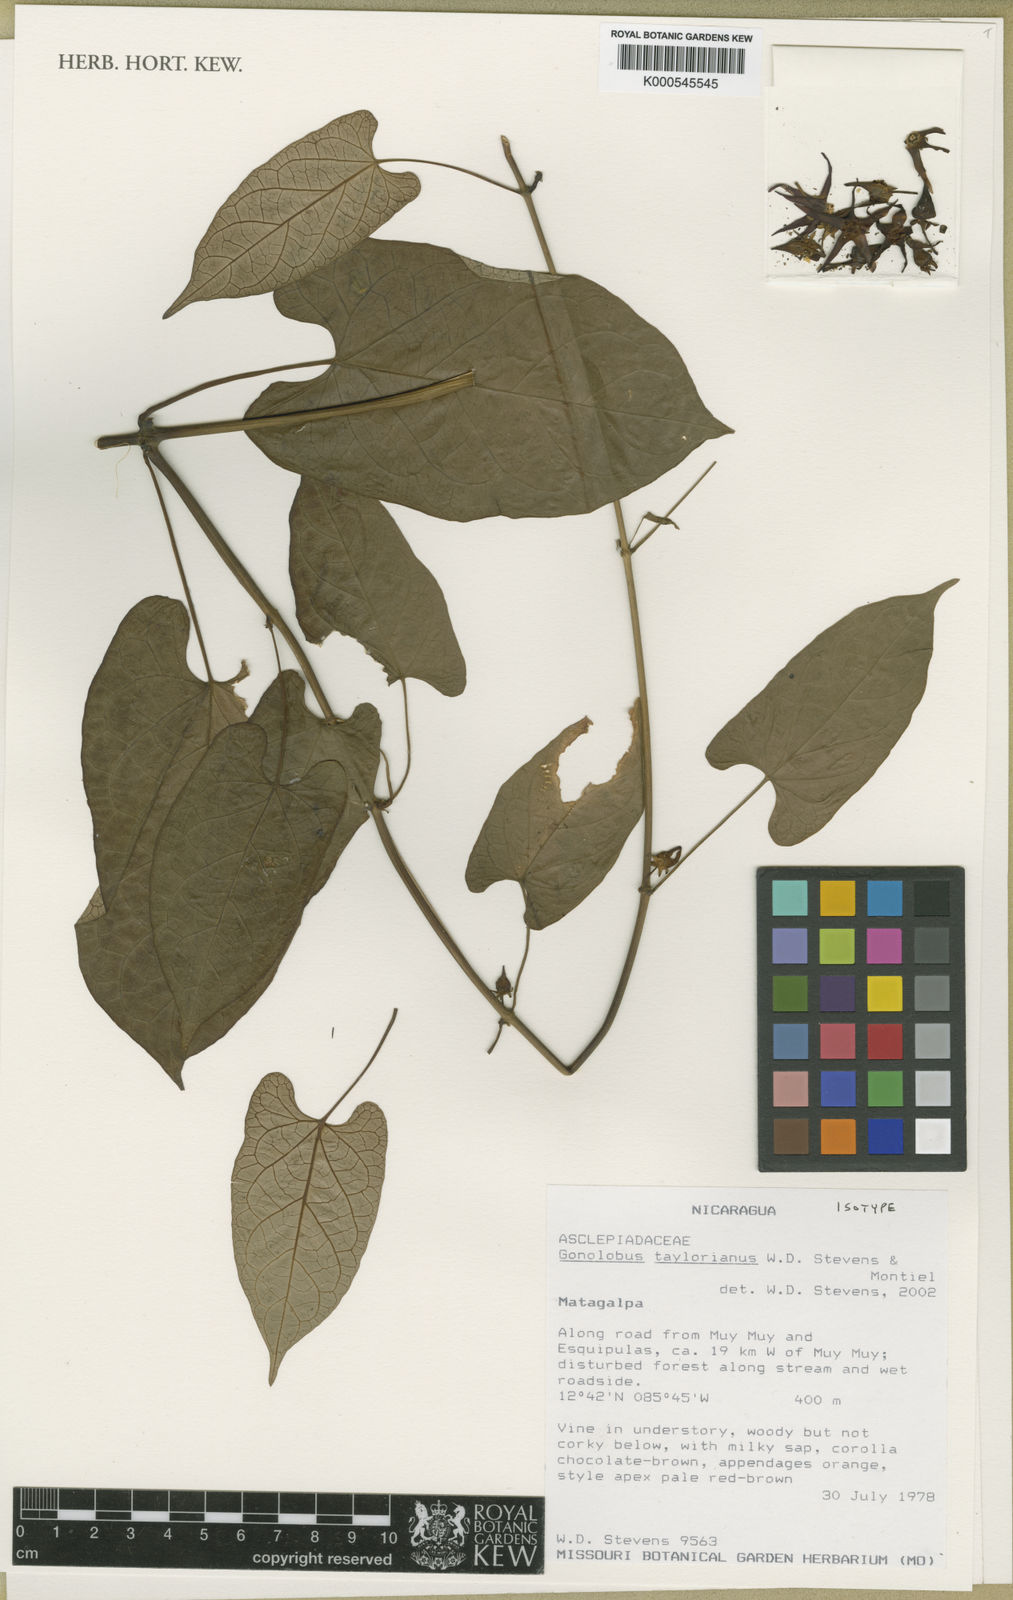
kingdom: Plantae
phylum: Tracheophyta
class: Magnoliopsida
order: Gentianales
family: Apocynaceae
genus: Gonolobus
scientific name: Gonolobus taylorianus
